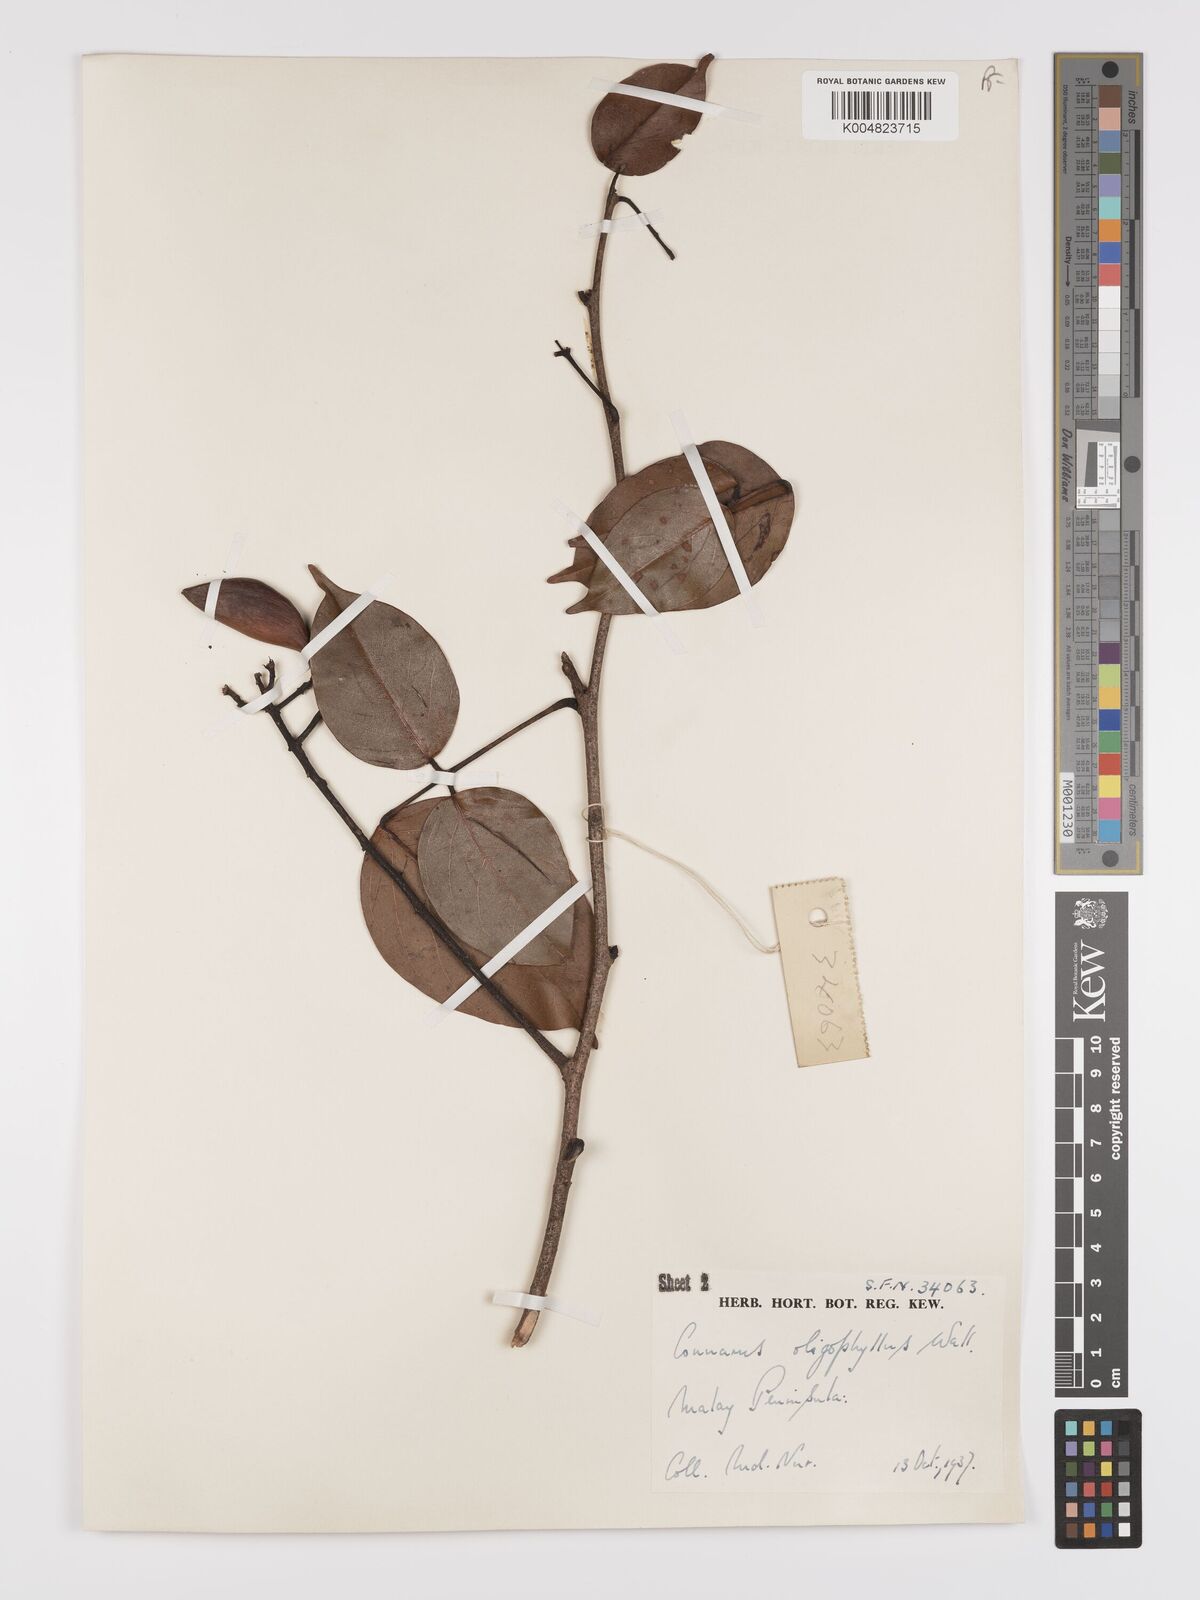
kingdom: Plantae
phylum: Tracheophyta
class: Magnoliopsida
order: Oxalidales
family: Connaraceae
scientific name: Connaraceae
